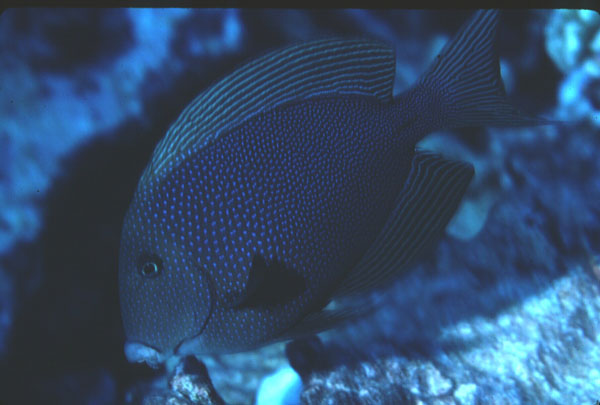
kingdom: Animalia
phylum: Chordata
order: Perciformes
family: Acanthuridae
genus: Ctenochaetus
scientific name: Ctenochaetus marginatus
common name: Blue-spotted bristletooth
